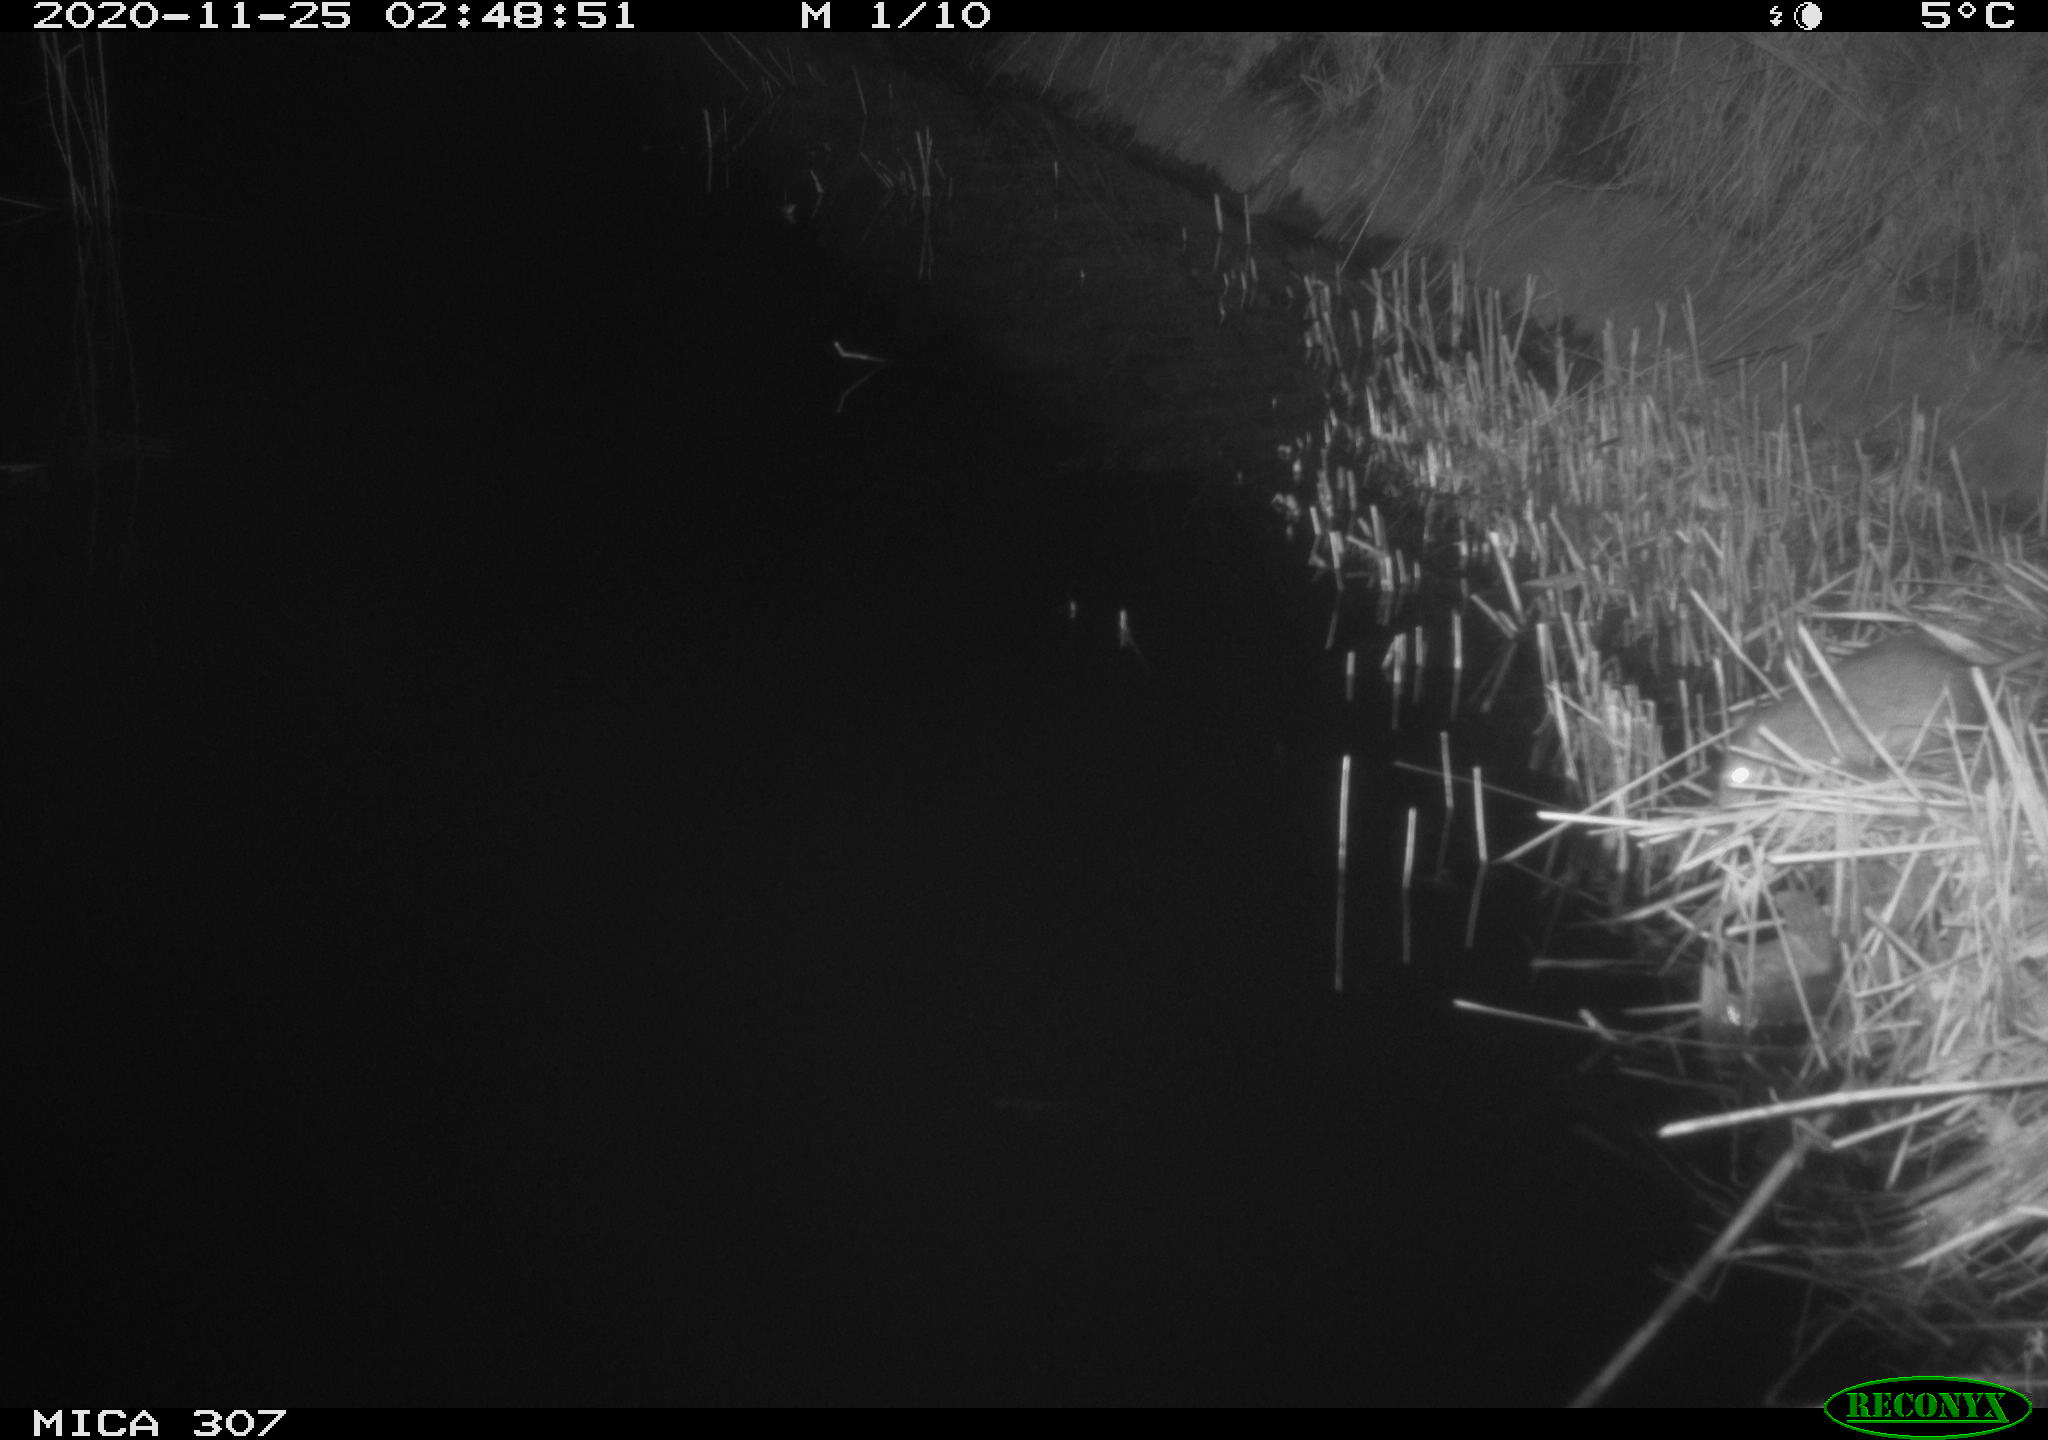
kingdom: Animalia
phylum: Chordata
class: Mammalia
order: Rodentia
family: Muridae
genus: Rattus
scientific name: Rattus norvegicus
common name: Brown rat
